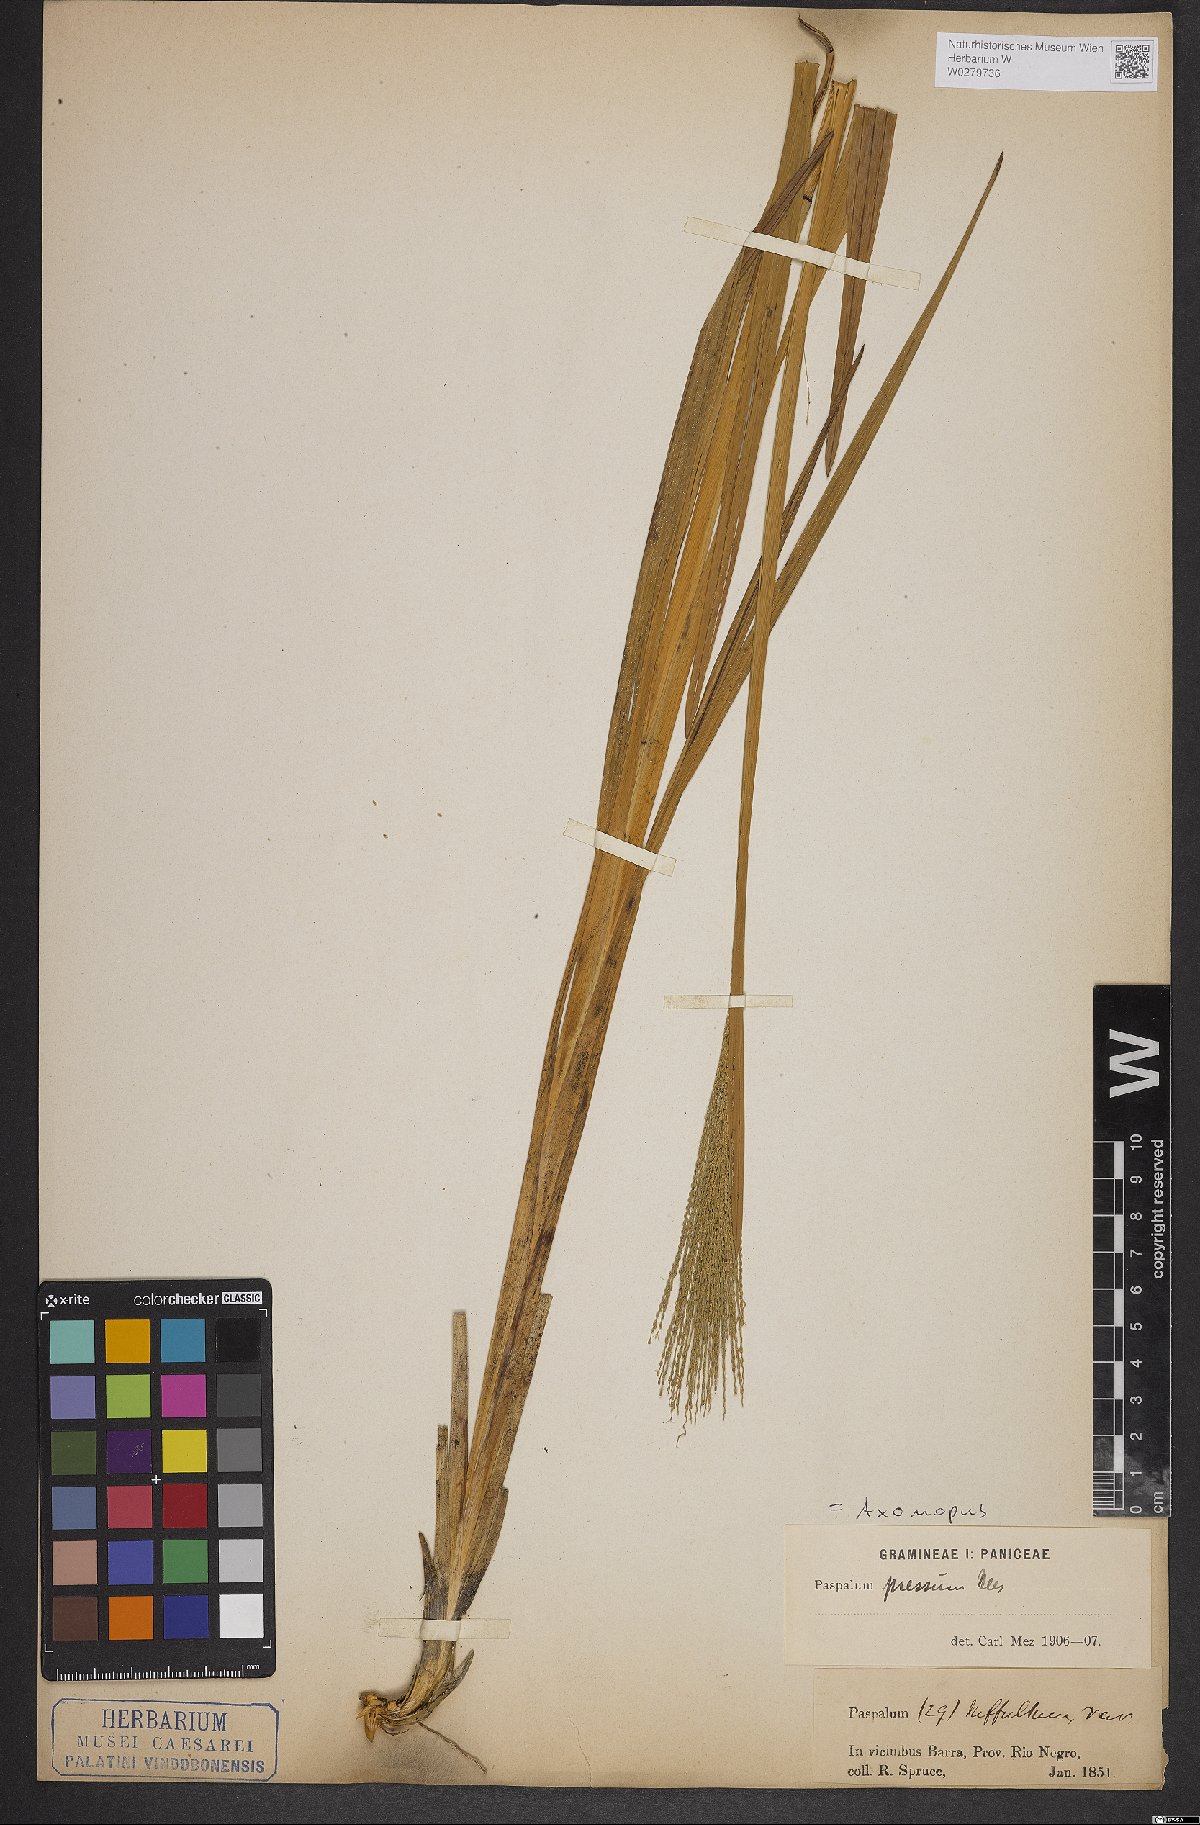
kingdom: Plantae
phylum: Tracheophyta
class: Liliopsida
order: Poales
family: Poaceae
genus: Axonopus
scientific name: Axonopus pressus
